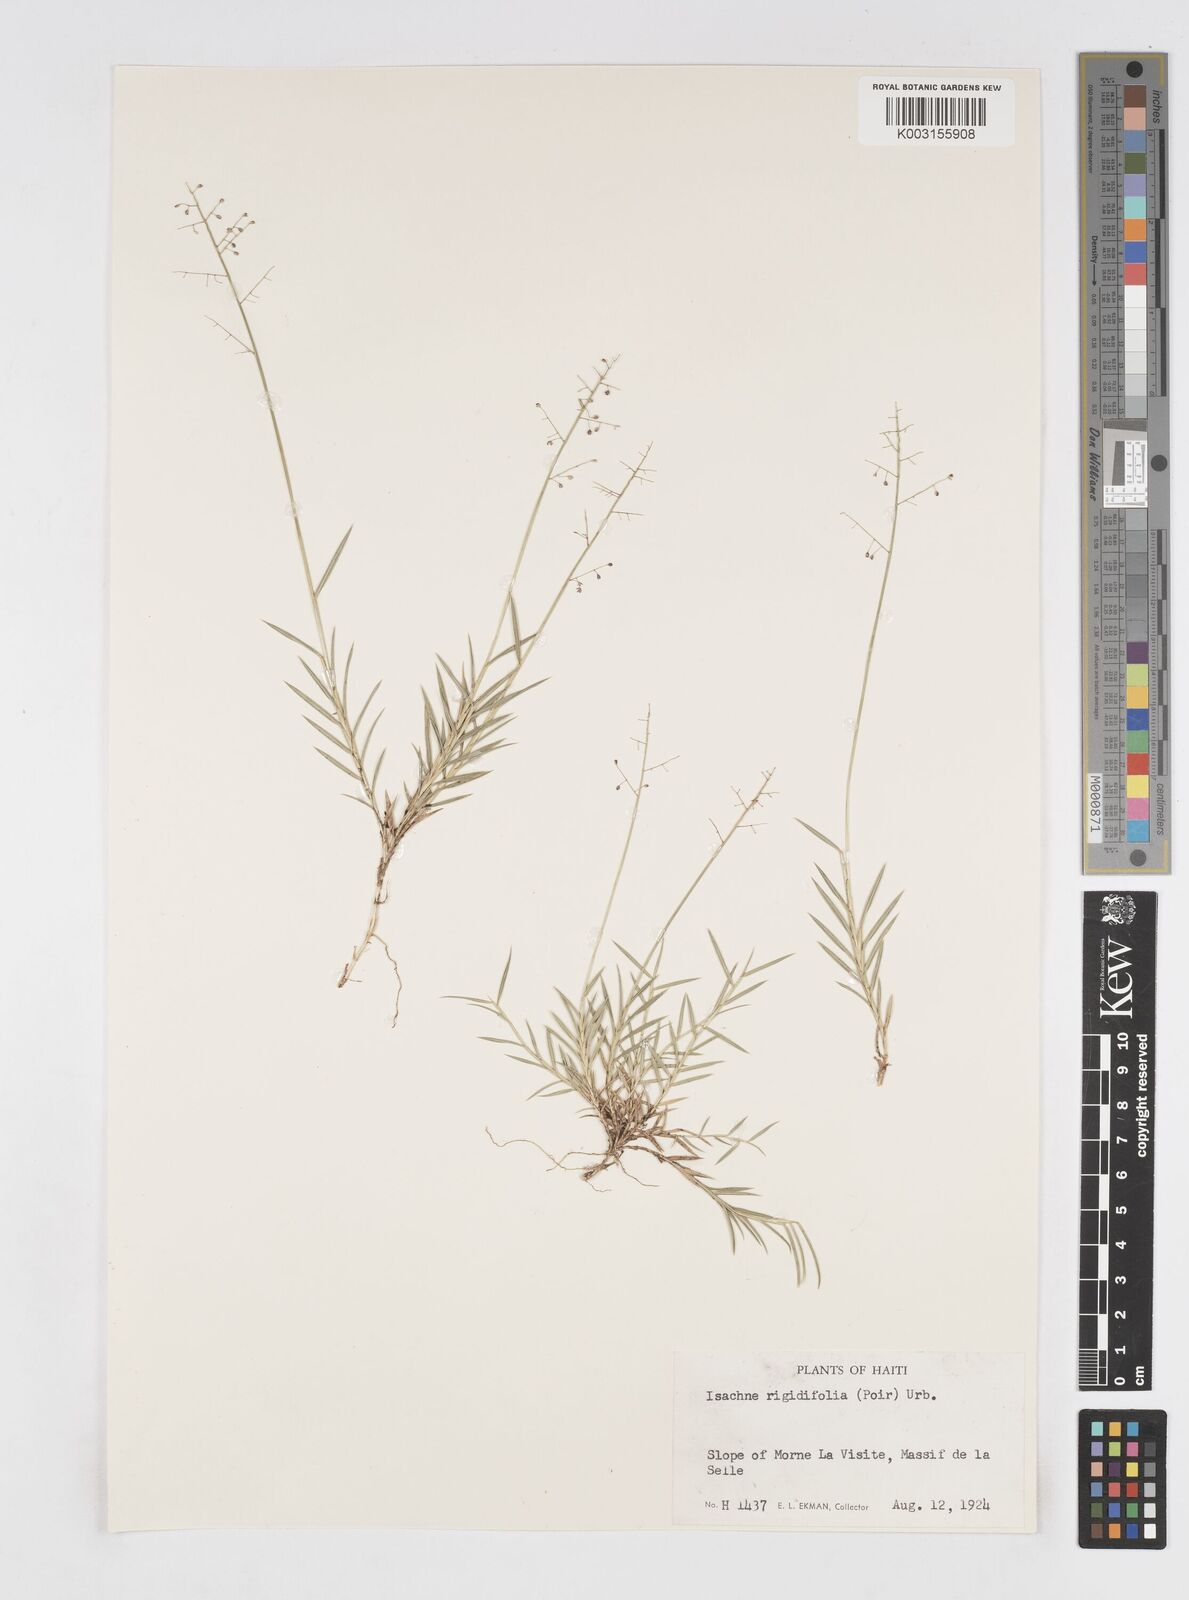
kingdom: Plantae
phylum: Tracheophyta
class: Liliopsida
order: Poales
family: Poaceae
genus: Isachne
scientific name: Isachne rigidifolia
